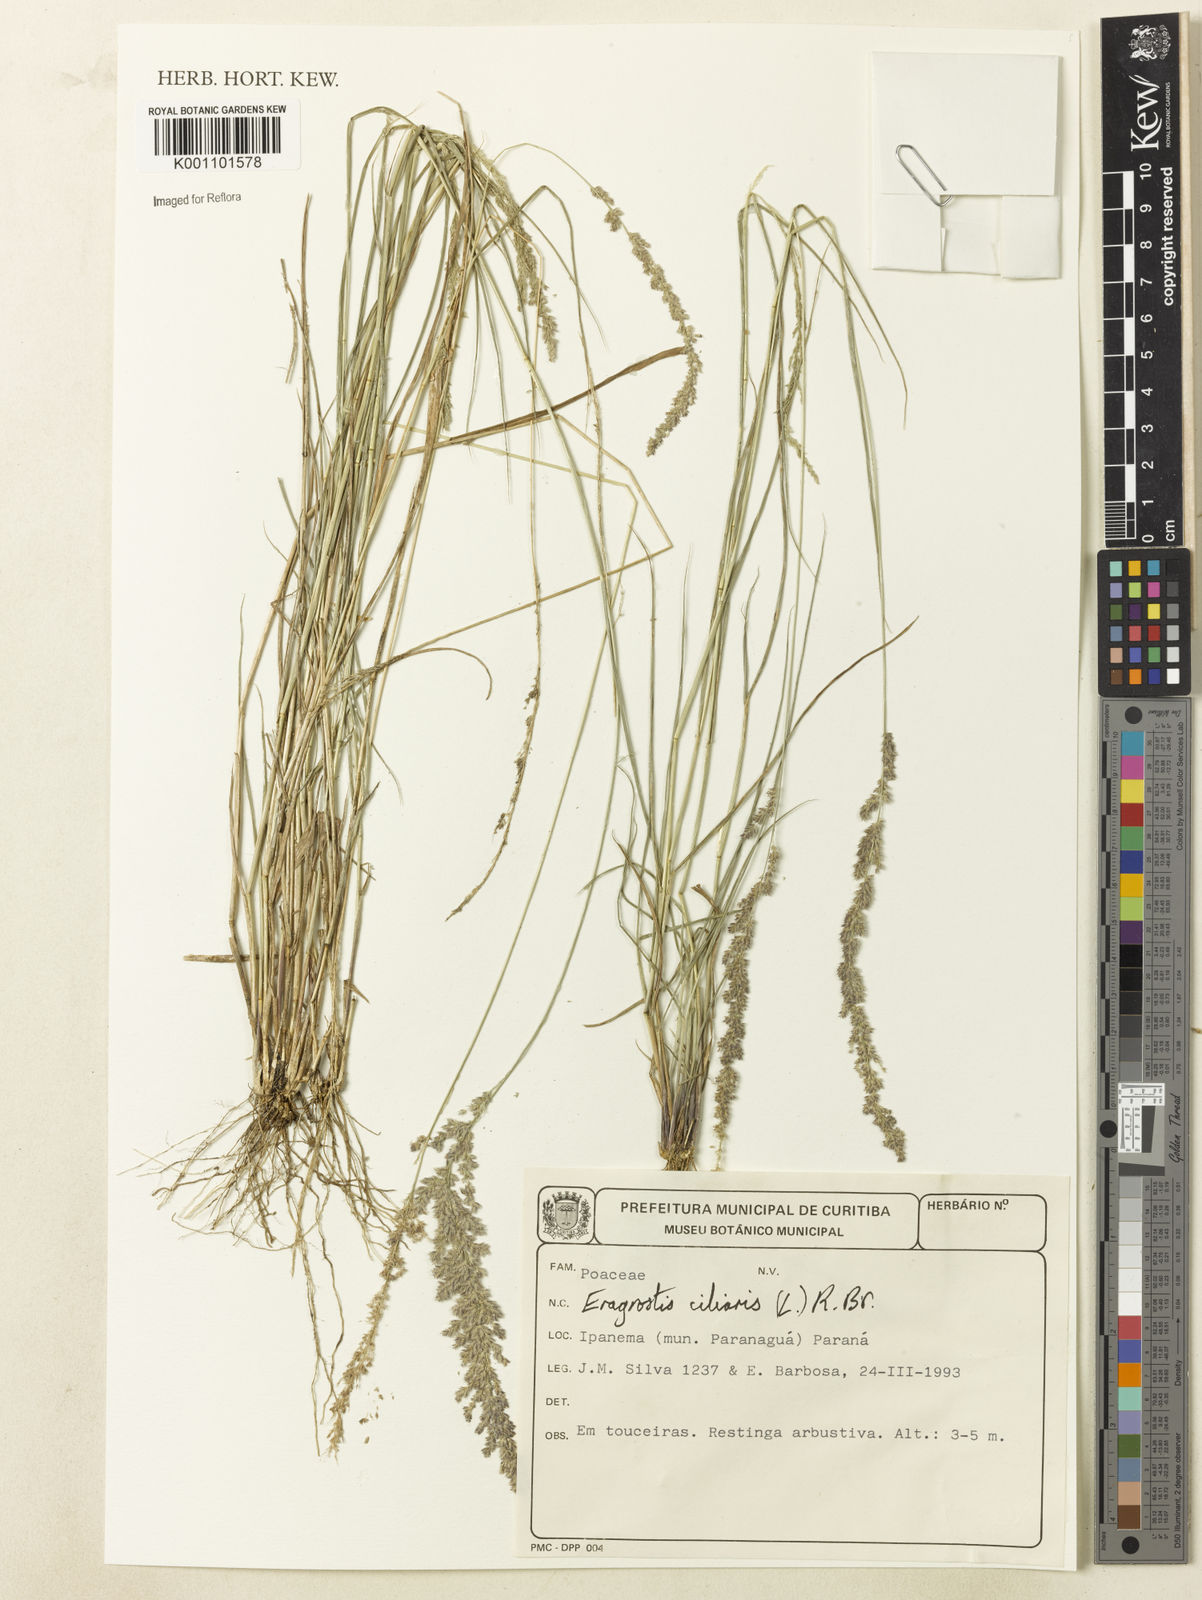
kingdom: Plantae
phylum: Tracheophyta
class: Liliopsida
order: Poales
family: Poaceae
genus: Eragrostis
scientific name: Eragrostis ciliaris
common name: Gophertail lovegrass
